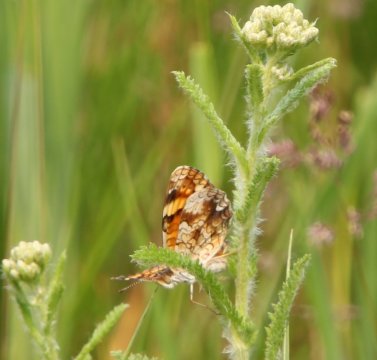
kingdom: Animalia
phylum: Arthropoda
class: Insecta
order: Lepidoptera
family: Nymphalidae
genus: Phyciodes
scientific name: Phyciodes tharos
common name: Pearl Crescent
